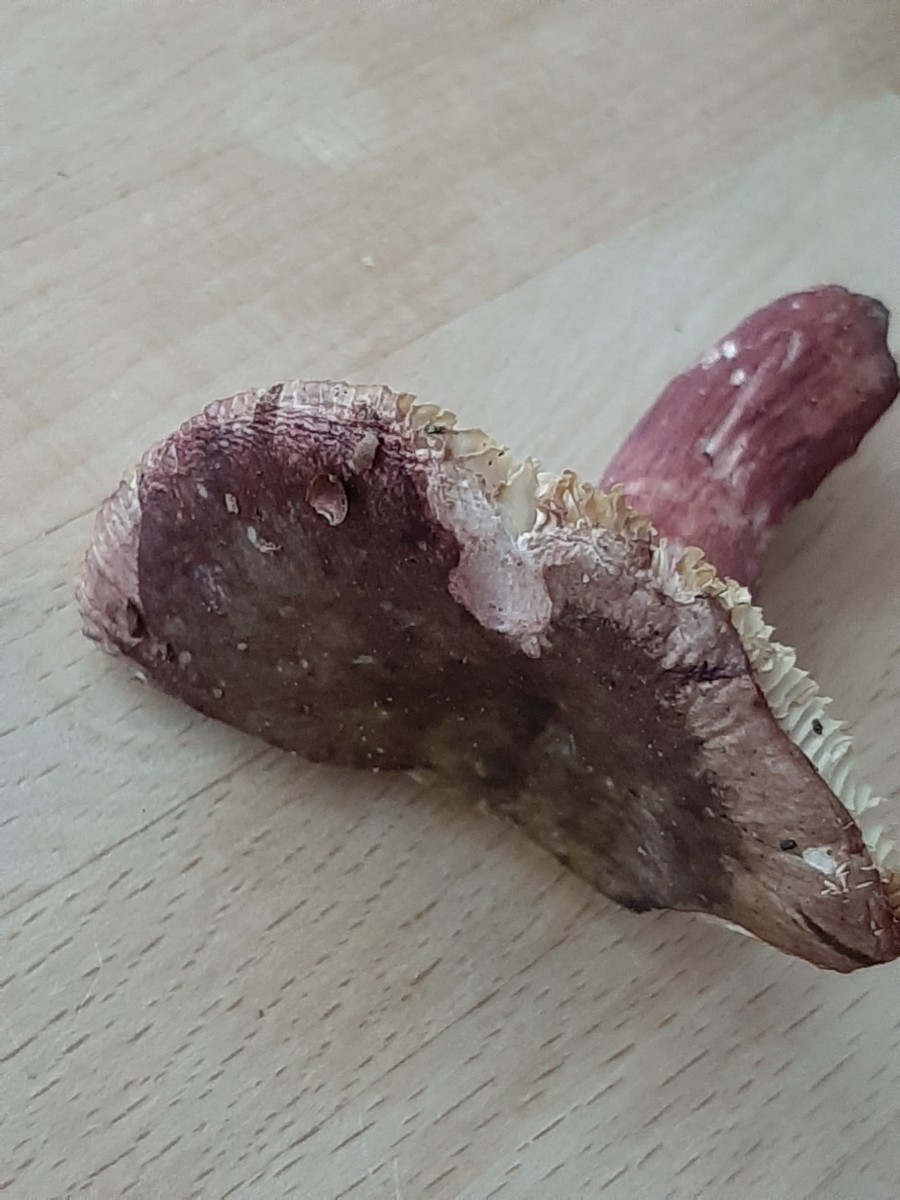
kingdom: Fungi
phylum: Basidiomycota
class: Agaricomycetes
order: Russulales
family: Russulaceae
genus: Russula
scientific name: Russula queletii
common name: Quélets skørhat
